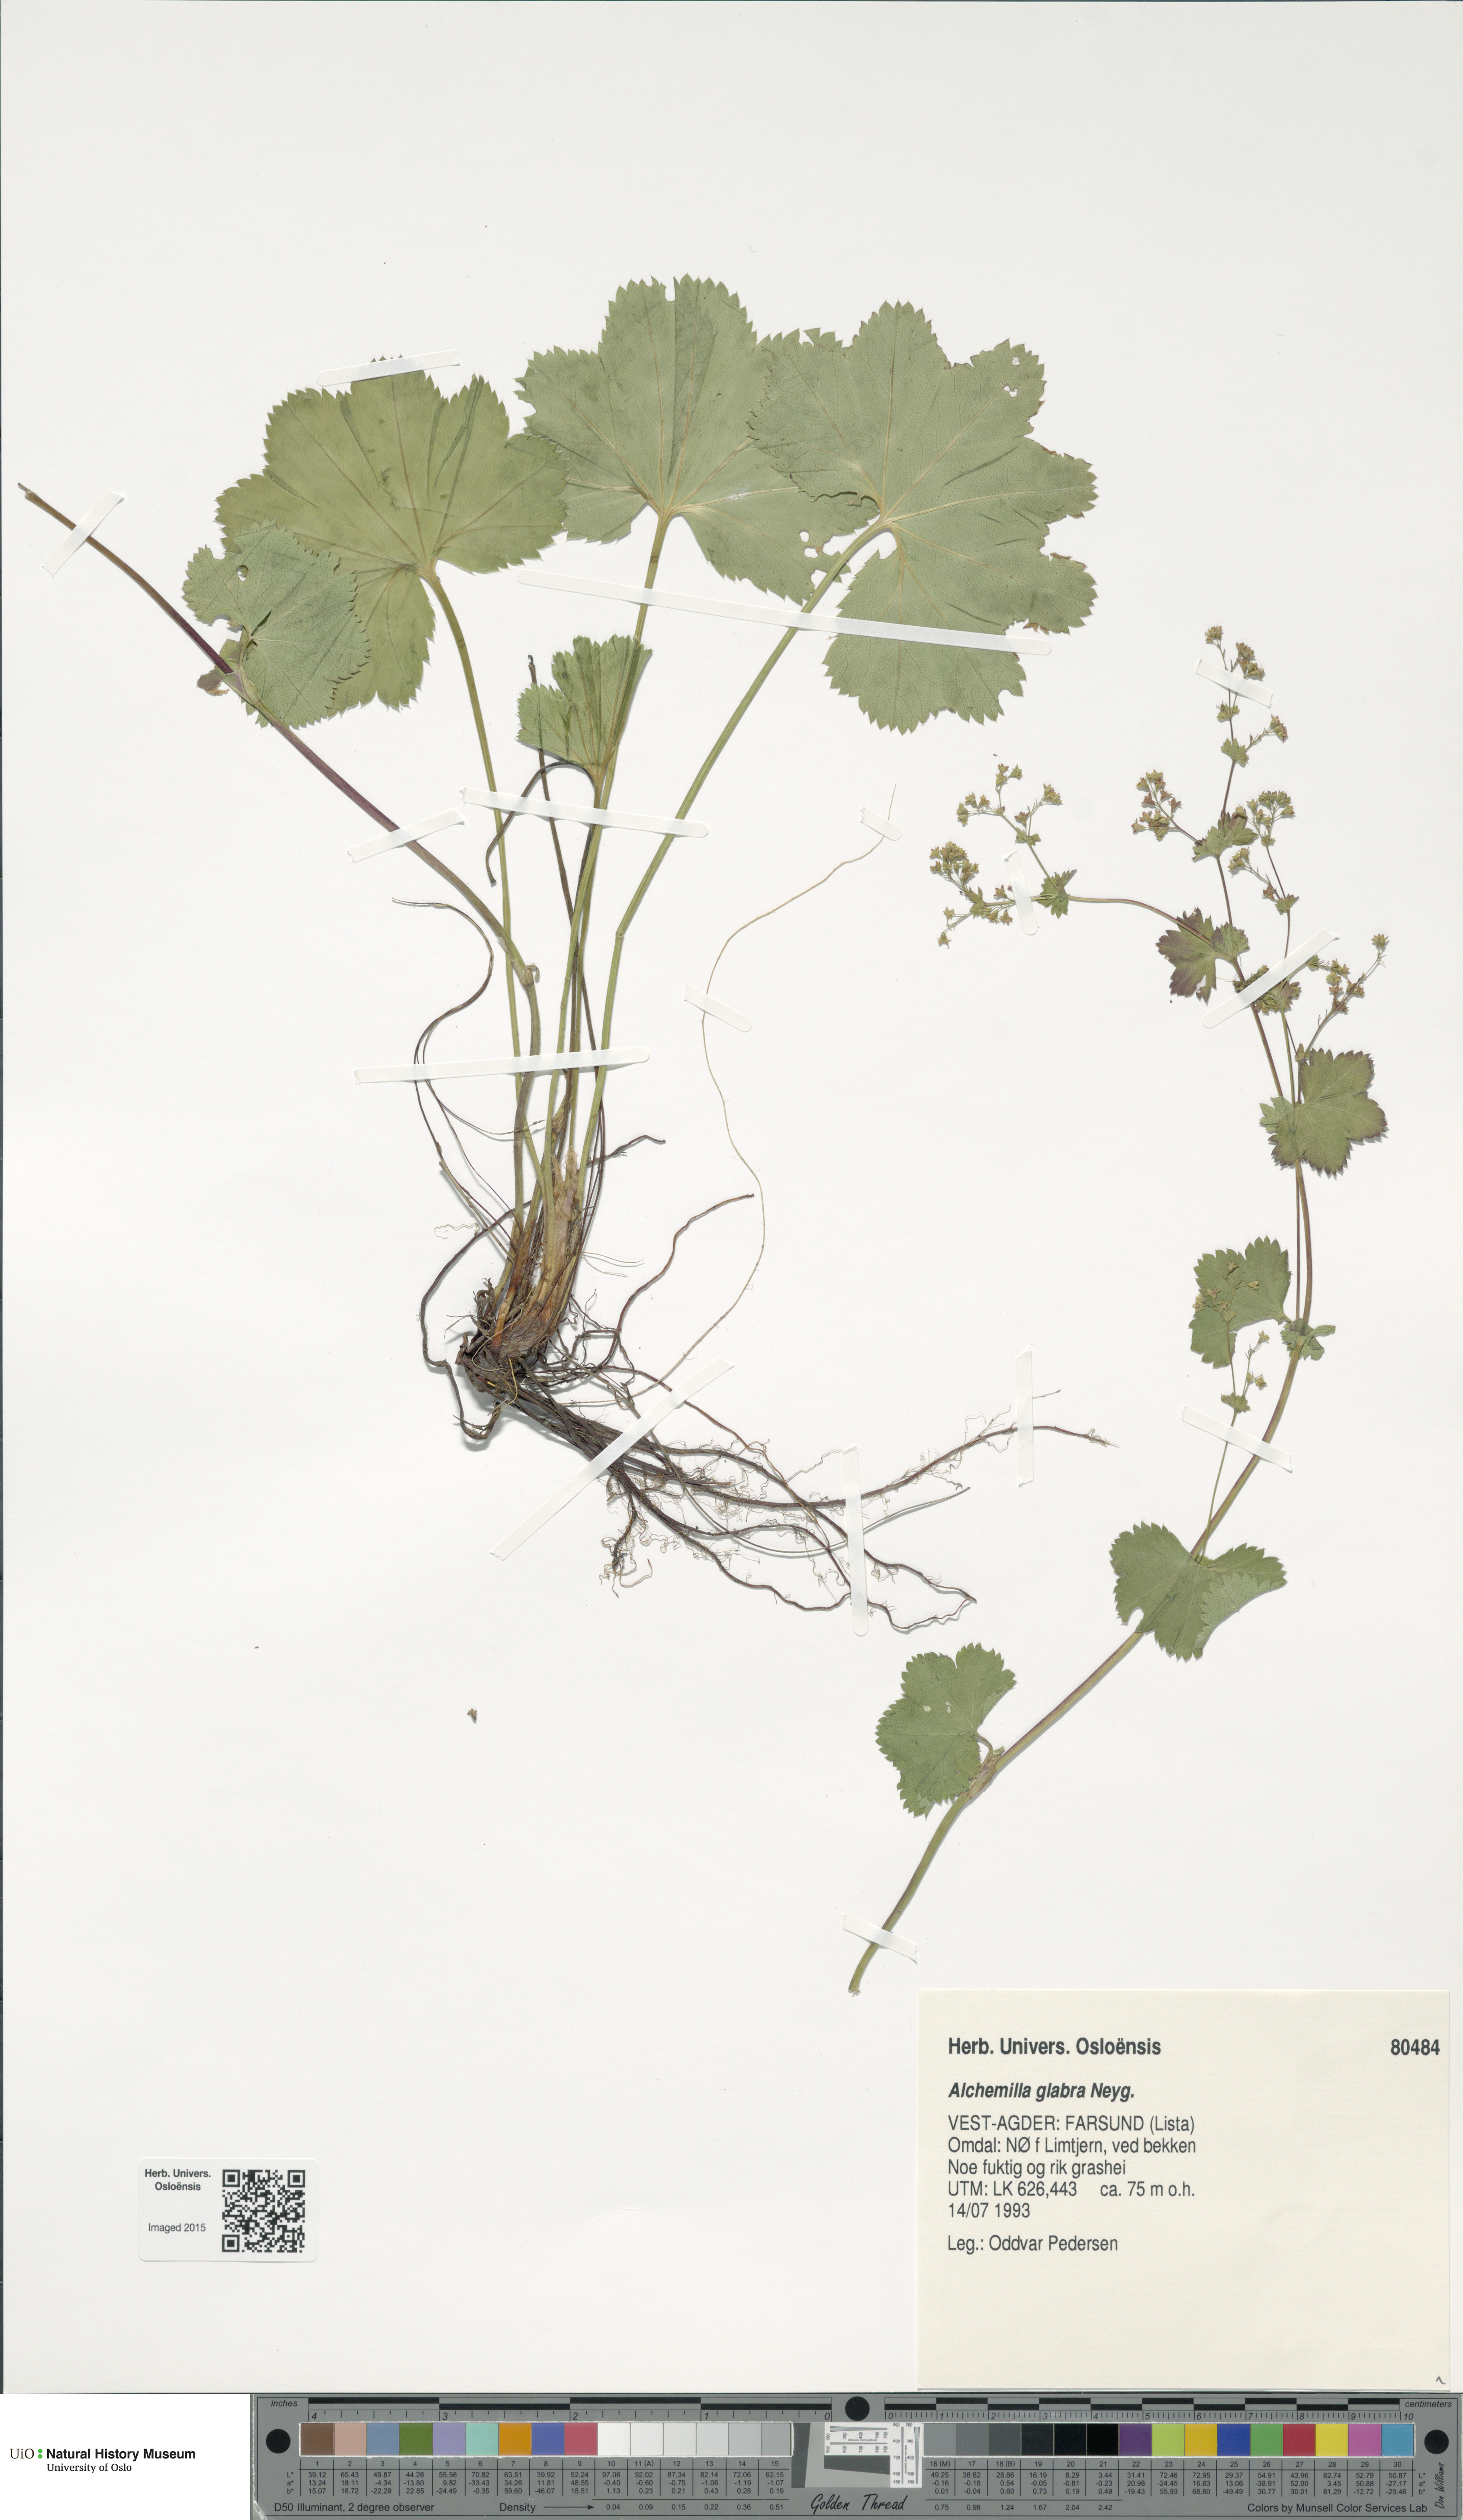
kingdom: Plantae
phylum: Tracheophyta
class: Magnoliopsida
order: Rosales
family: Rosaceae
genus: Alchemilla
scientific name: Alchemilla glabra
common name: Smooth lady's-mantle
